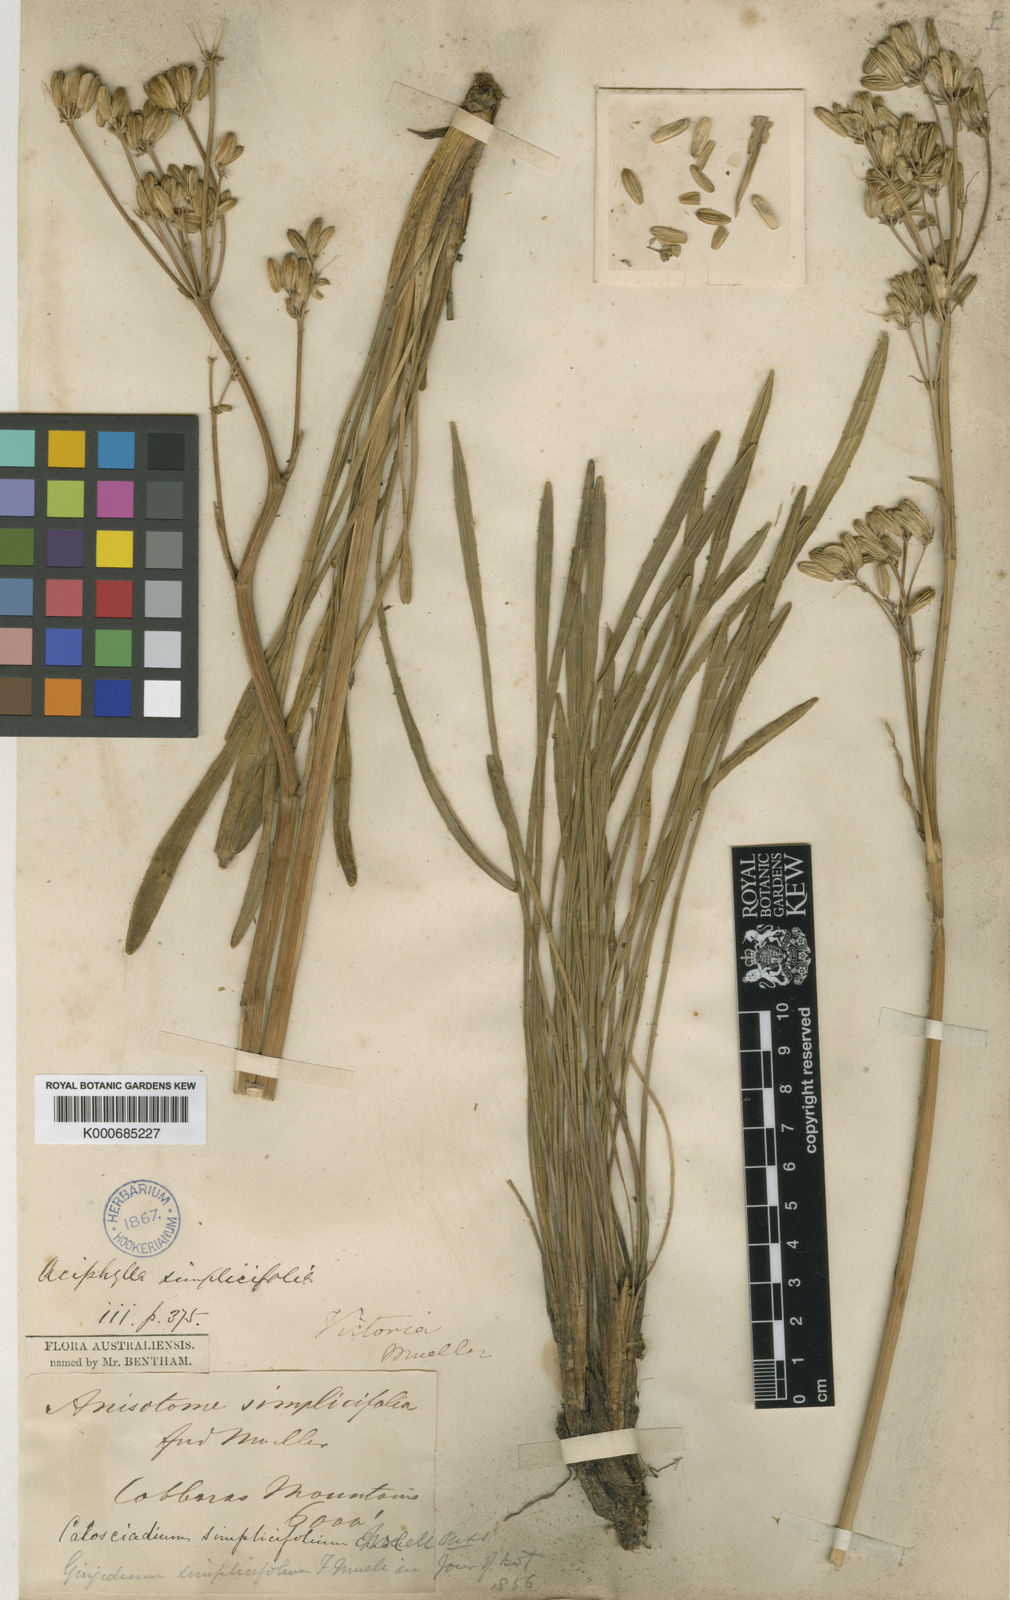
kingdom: Plantae
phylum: Tracheophyta
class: Magnoliopsida
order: Apiales
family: Apiaceae
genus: Aciphylla
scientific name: Aciphylla simplicifolia
